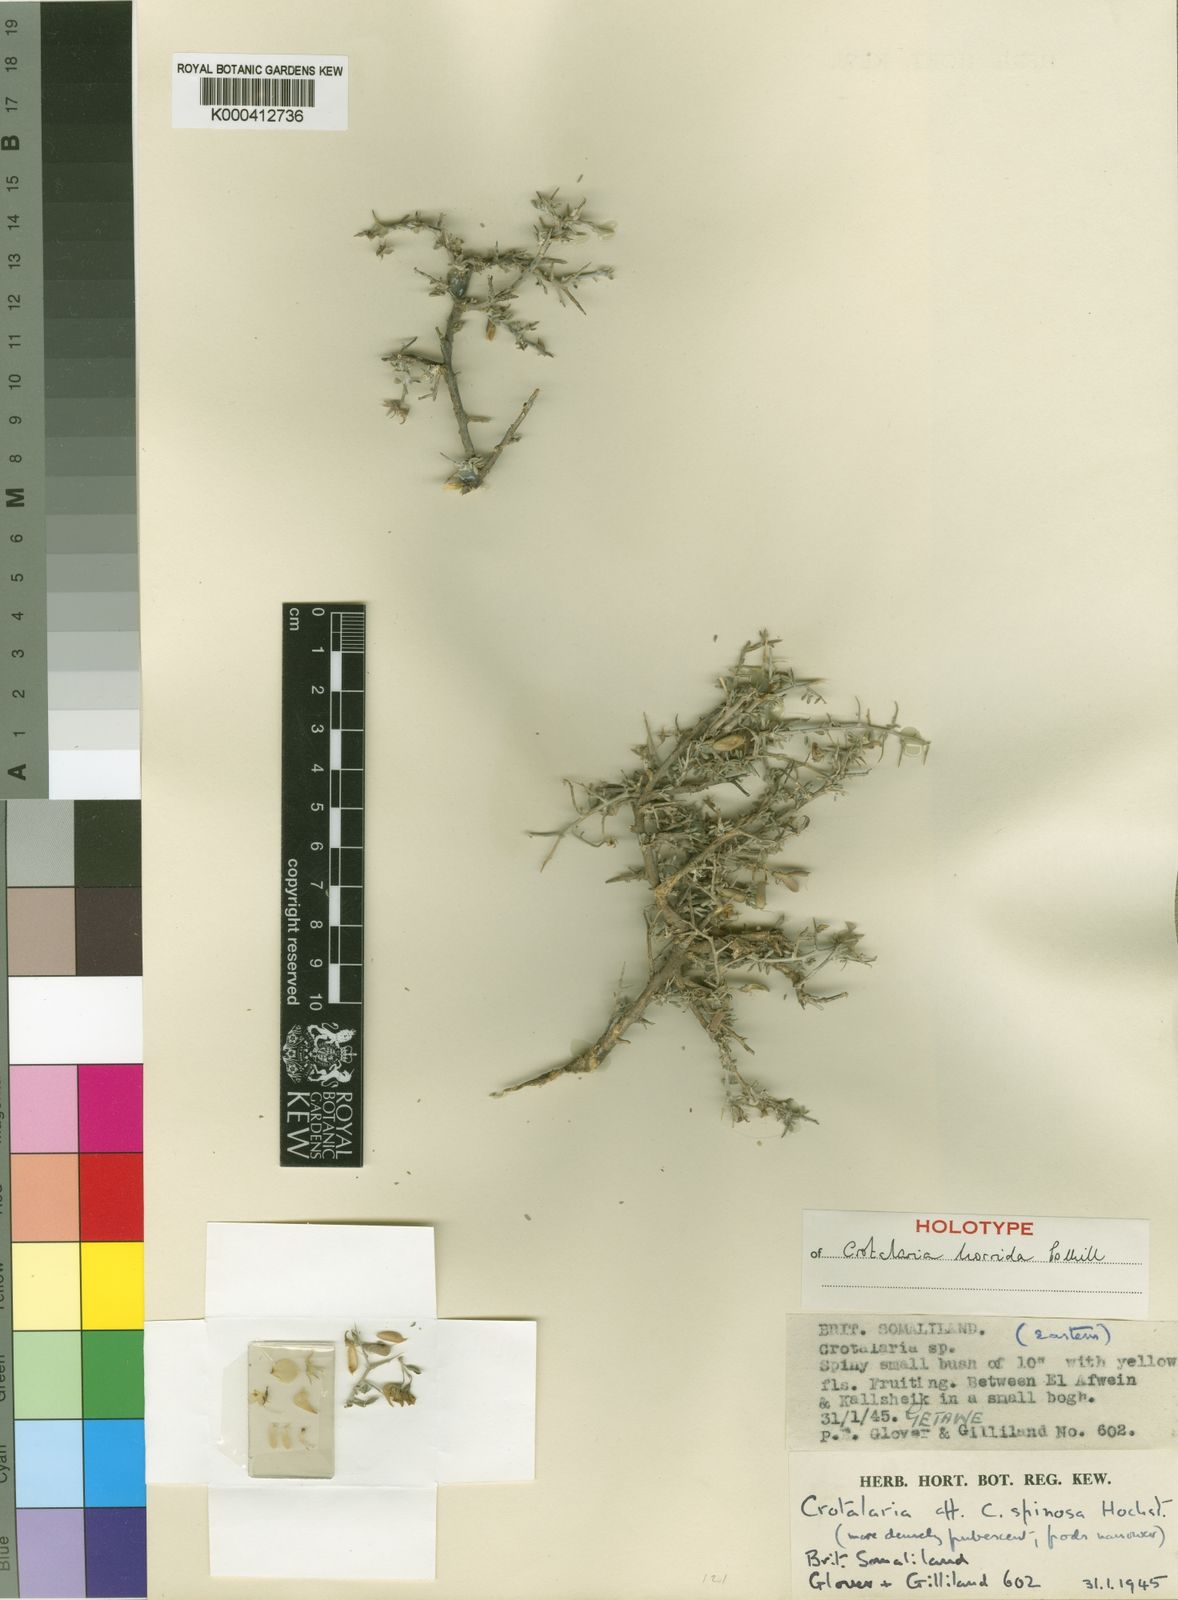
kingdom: Plantae
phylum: Tracheophyta
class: Magnoliopsida
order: Fabales
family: Fabaceae
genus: Crotalaria
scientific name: Crotalaria horrida
